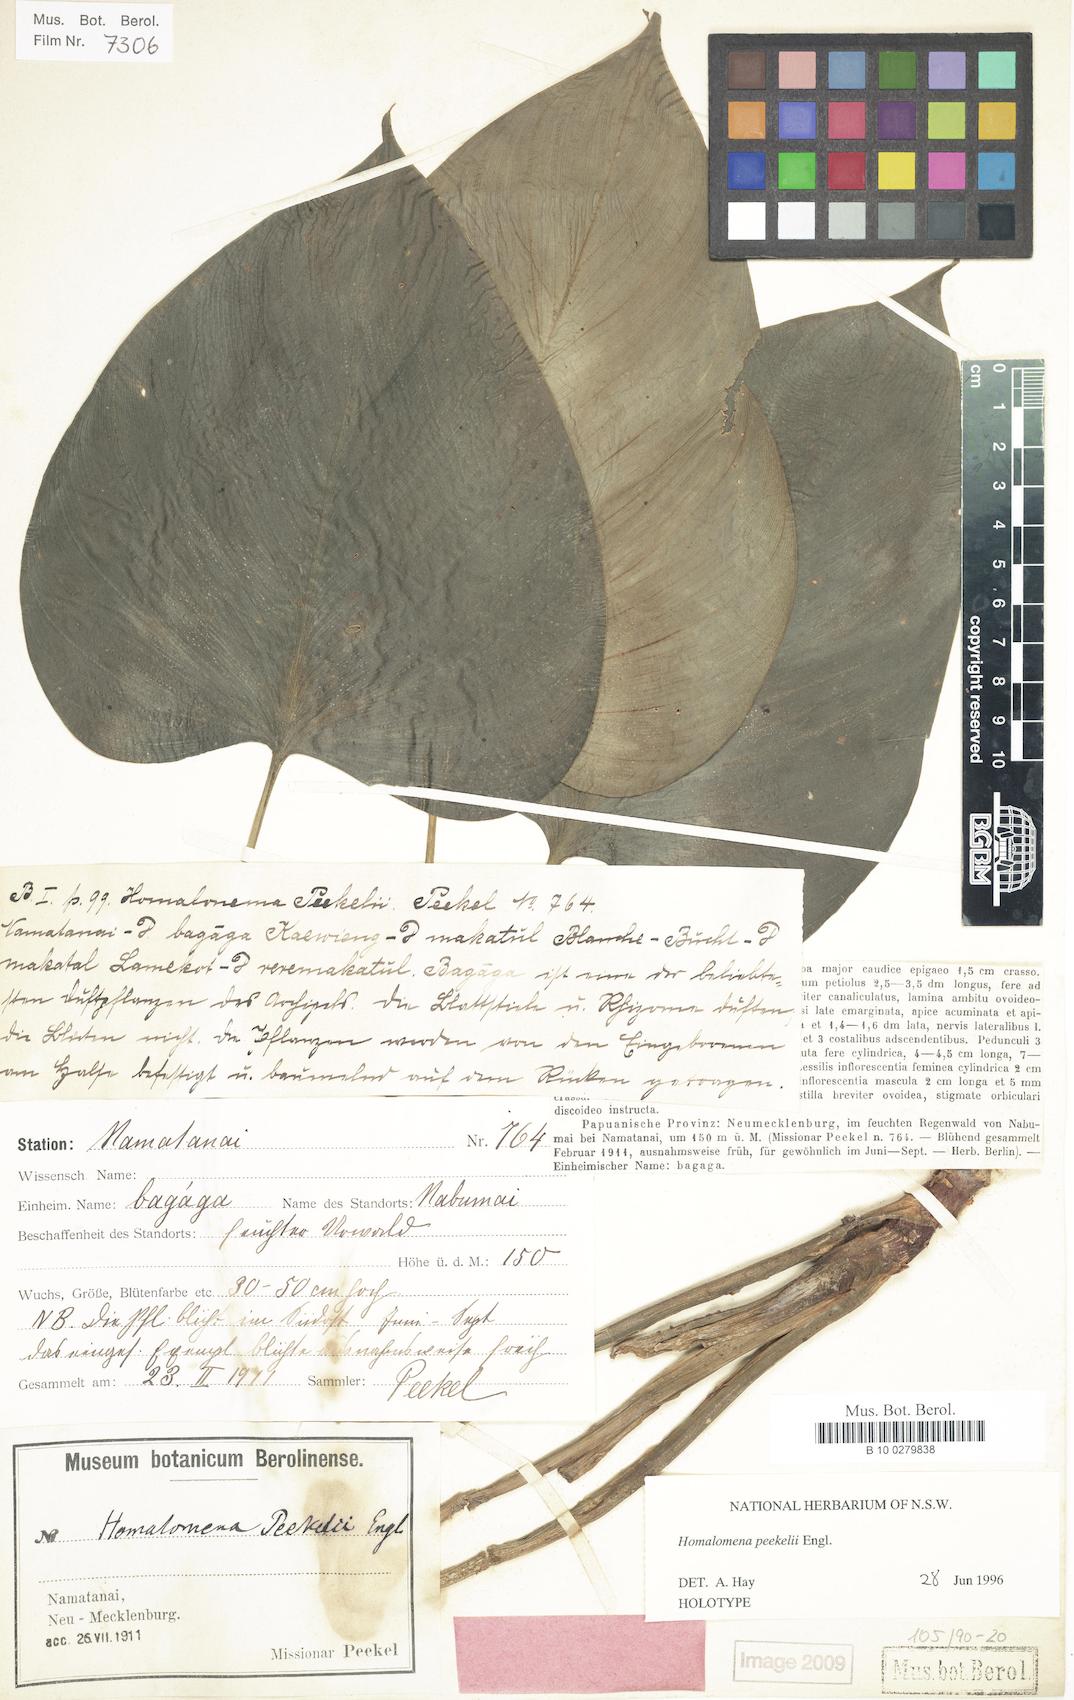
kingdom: Plantae
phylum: Tracheophyta
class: Liliopsida
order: Alismatales
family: Araceae
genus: Homalomena
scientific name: Homalomena peekelii
